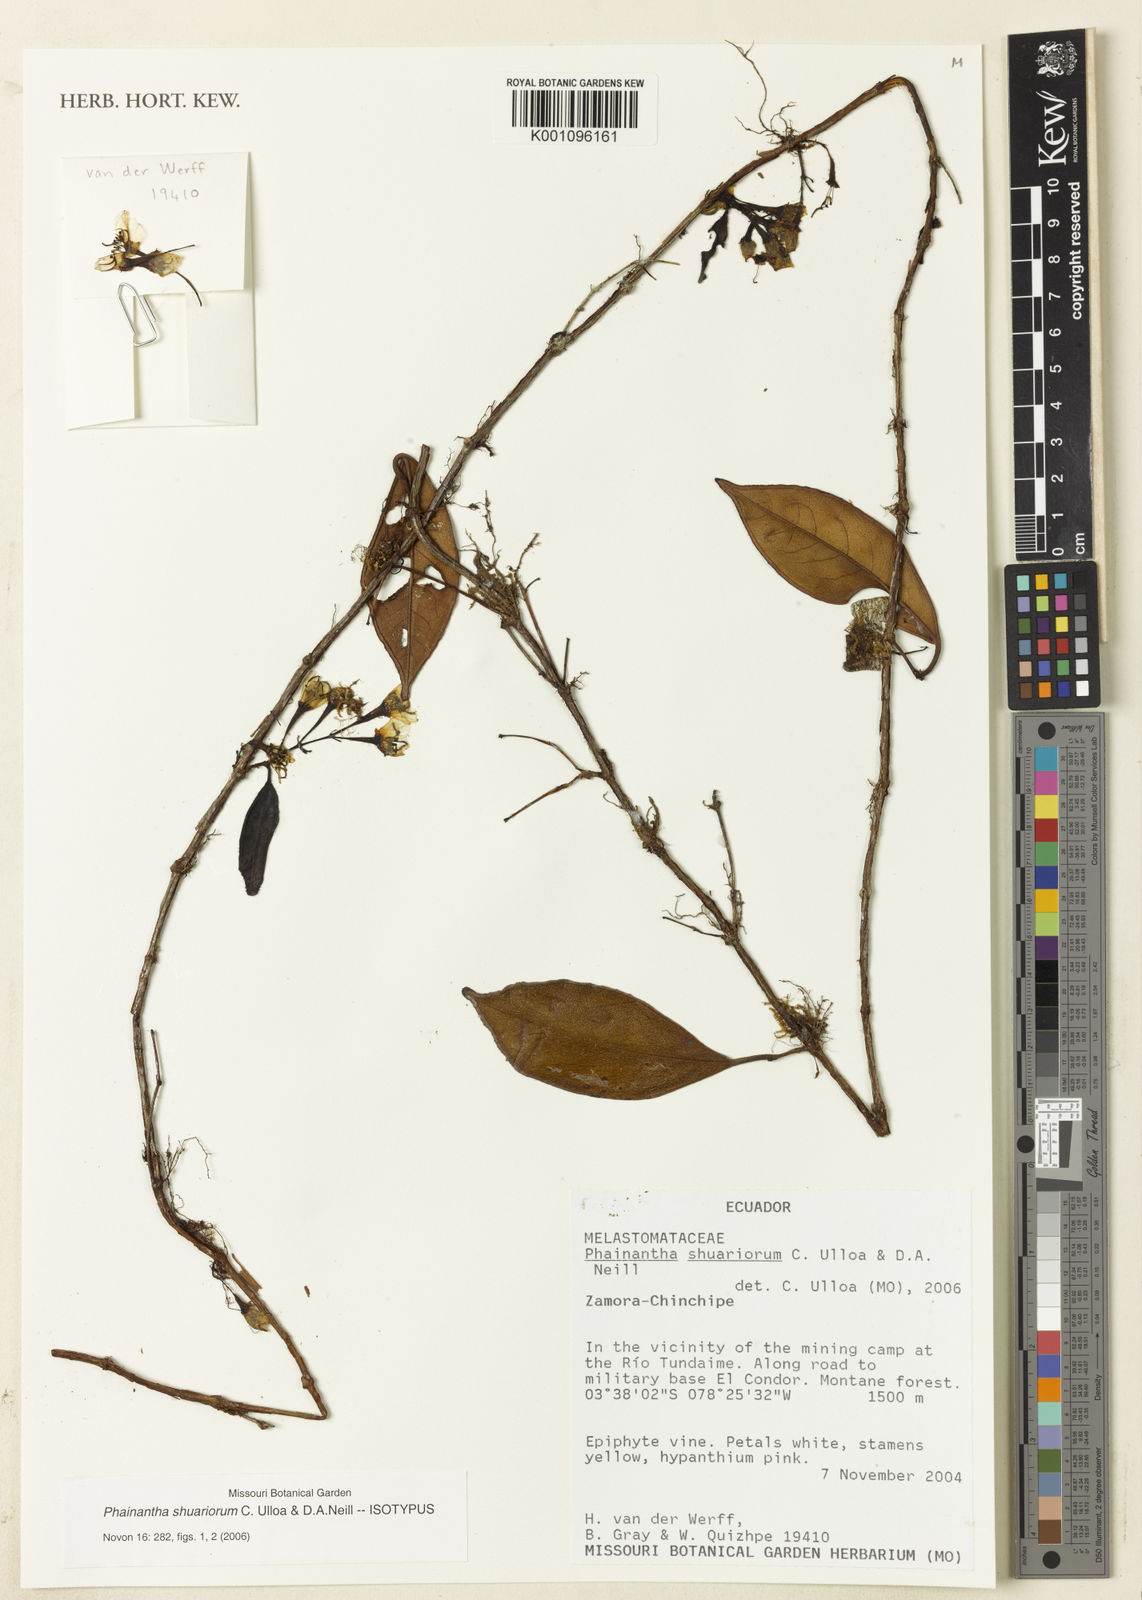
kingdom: Plantae
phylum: Tracheophyta
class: Magnoliopsida
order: Myrtales
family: Melastomataceae
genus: Phainantha
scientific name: Phainantha shuariorum
